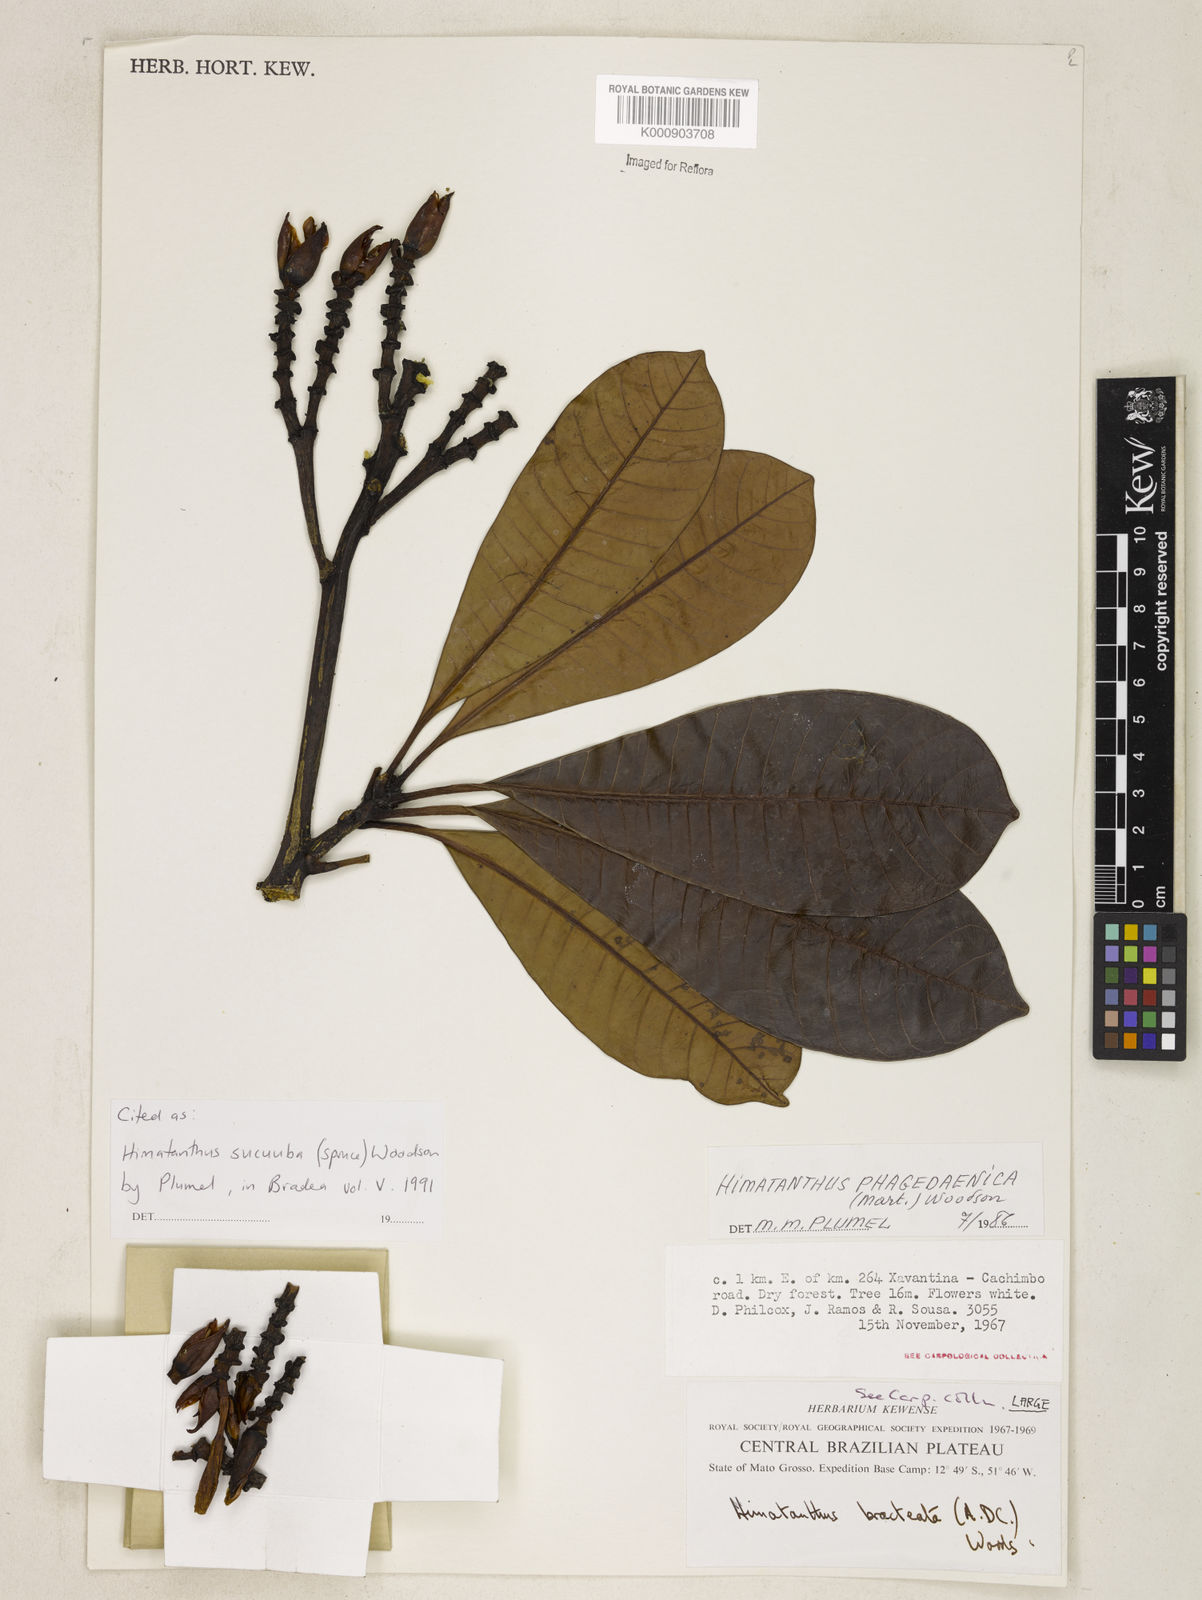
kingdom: Plantae
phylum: Tracheophyta
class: Magnoliopsida
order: Gentianales
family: Apocynaceae
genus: Himatanthus
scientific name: Himatanthus articulatus
